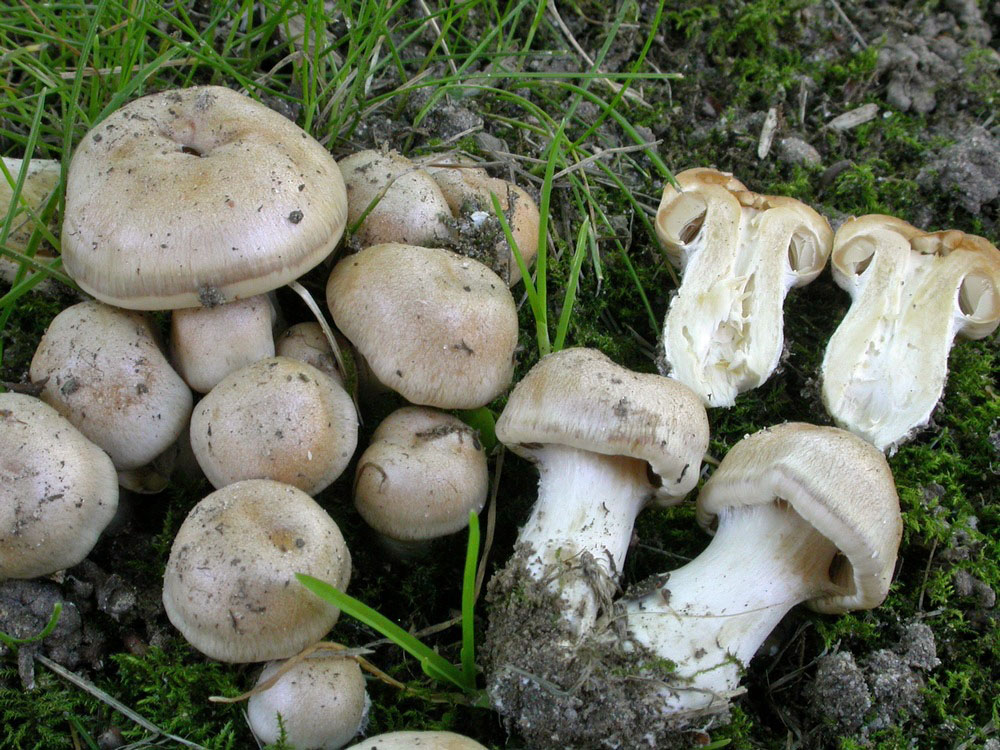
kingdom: Fungi
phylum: Basidiomycota
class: Agaricomycetes
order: Agaricales
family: Cortinariaceae
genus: Thaxterogaster
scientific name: Thaxterogaster leucoluteolus
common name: isabella slørhat
